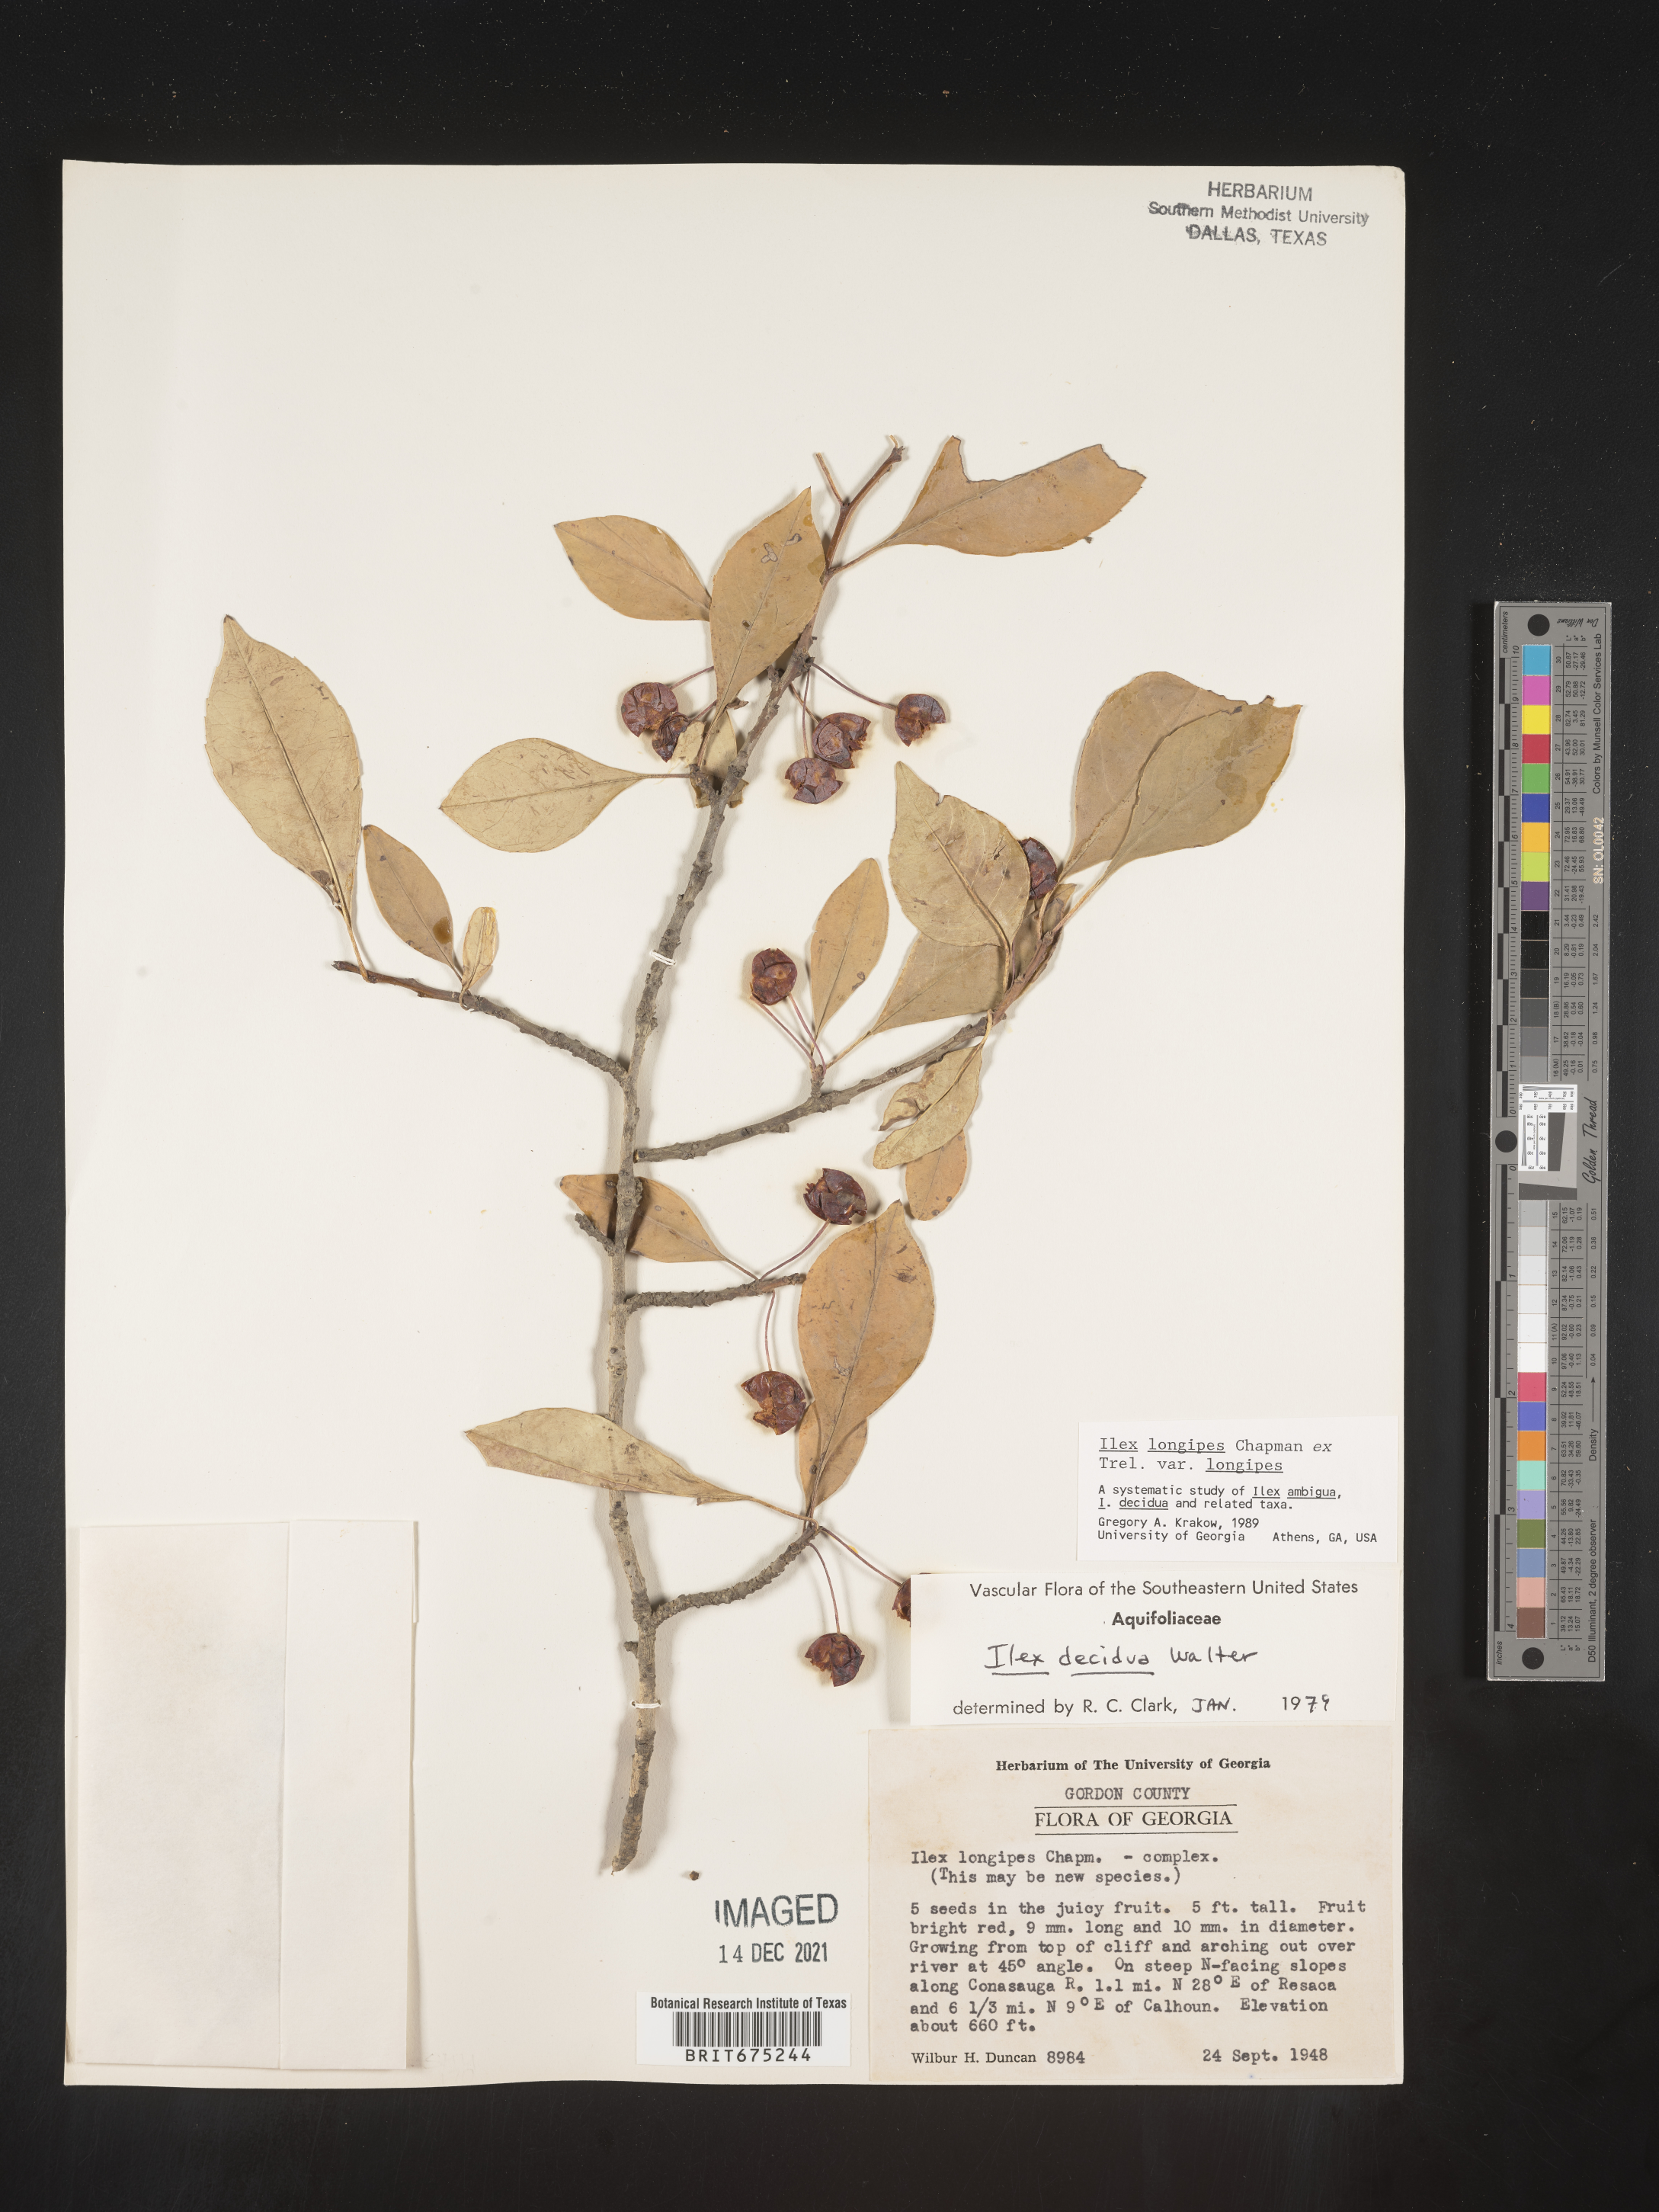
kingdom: Plantae
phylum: Tracheophyta
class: Magnoliopsida
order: Aquifoliales
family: Aquifoliaceae
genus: Ilex
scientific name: Ilex longipes
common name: Georgia holly
